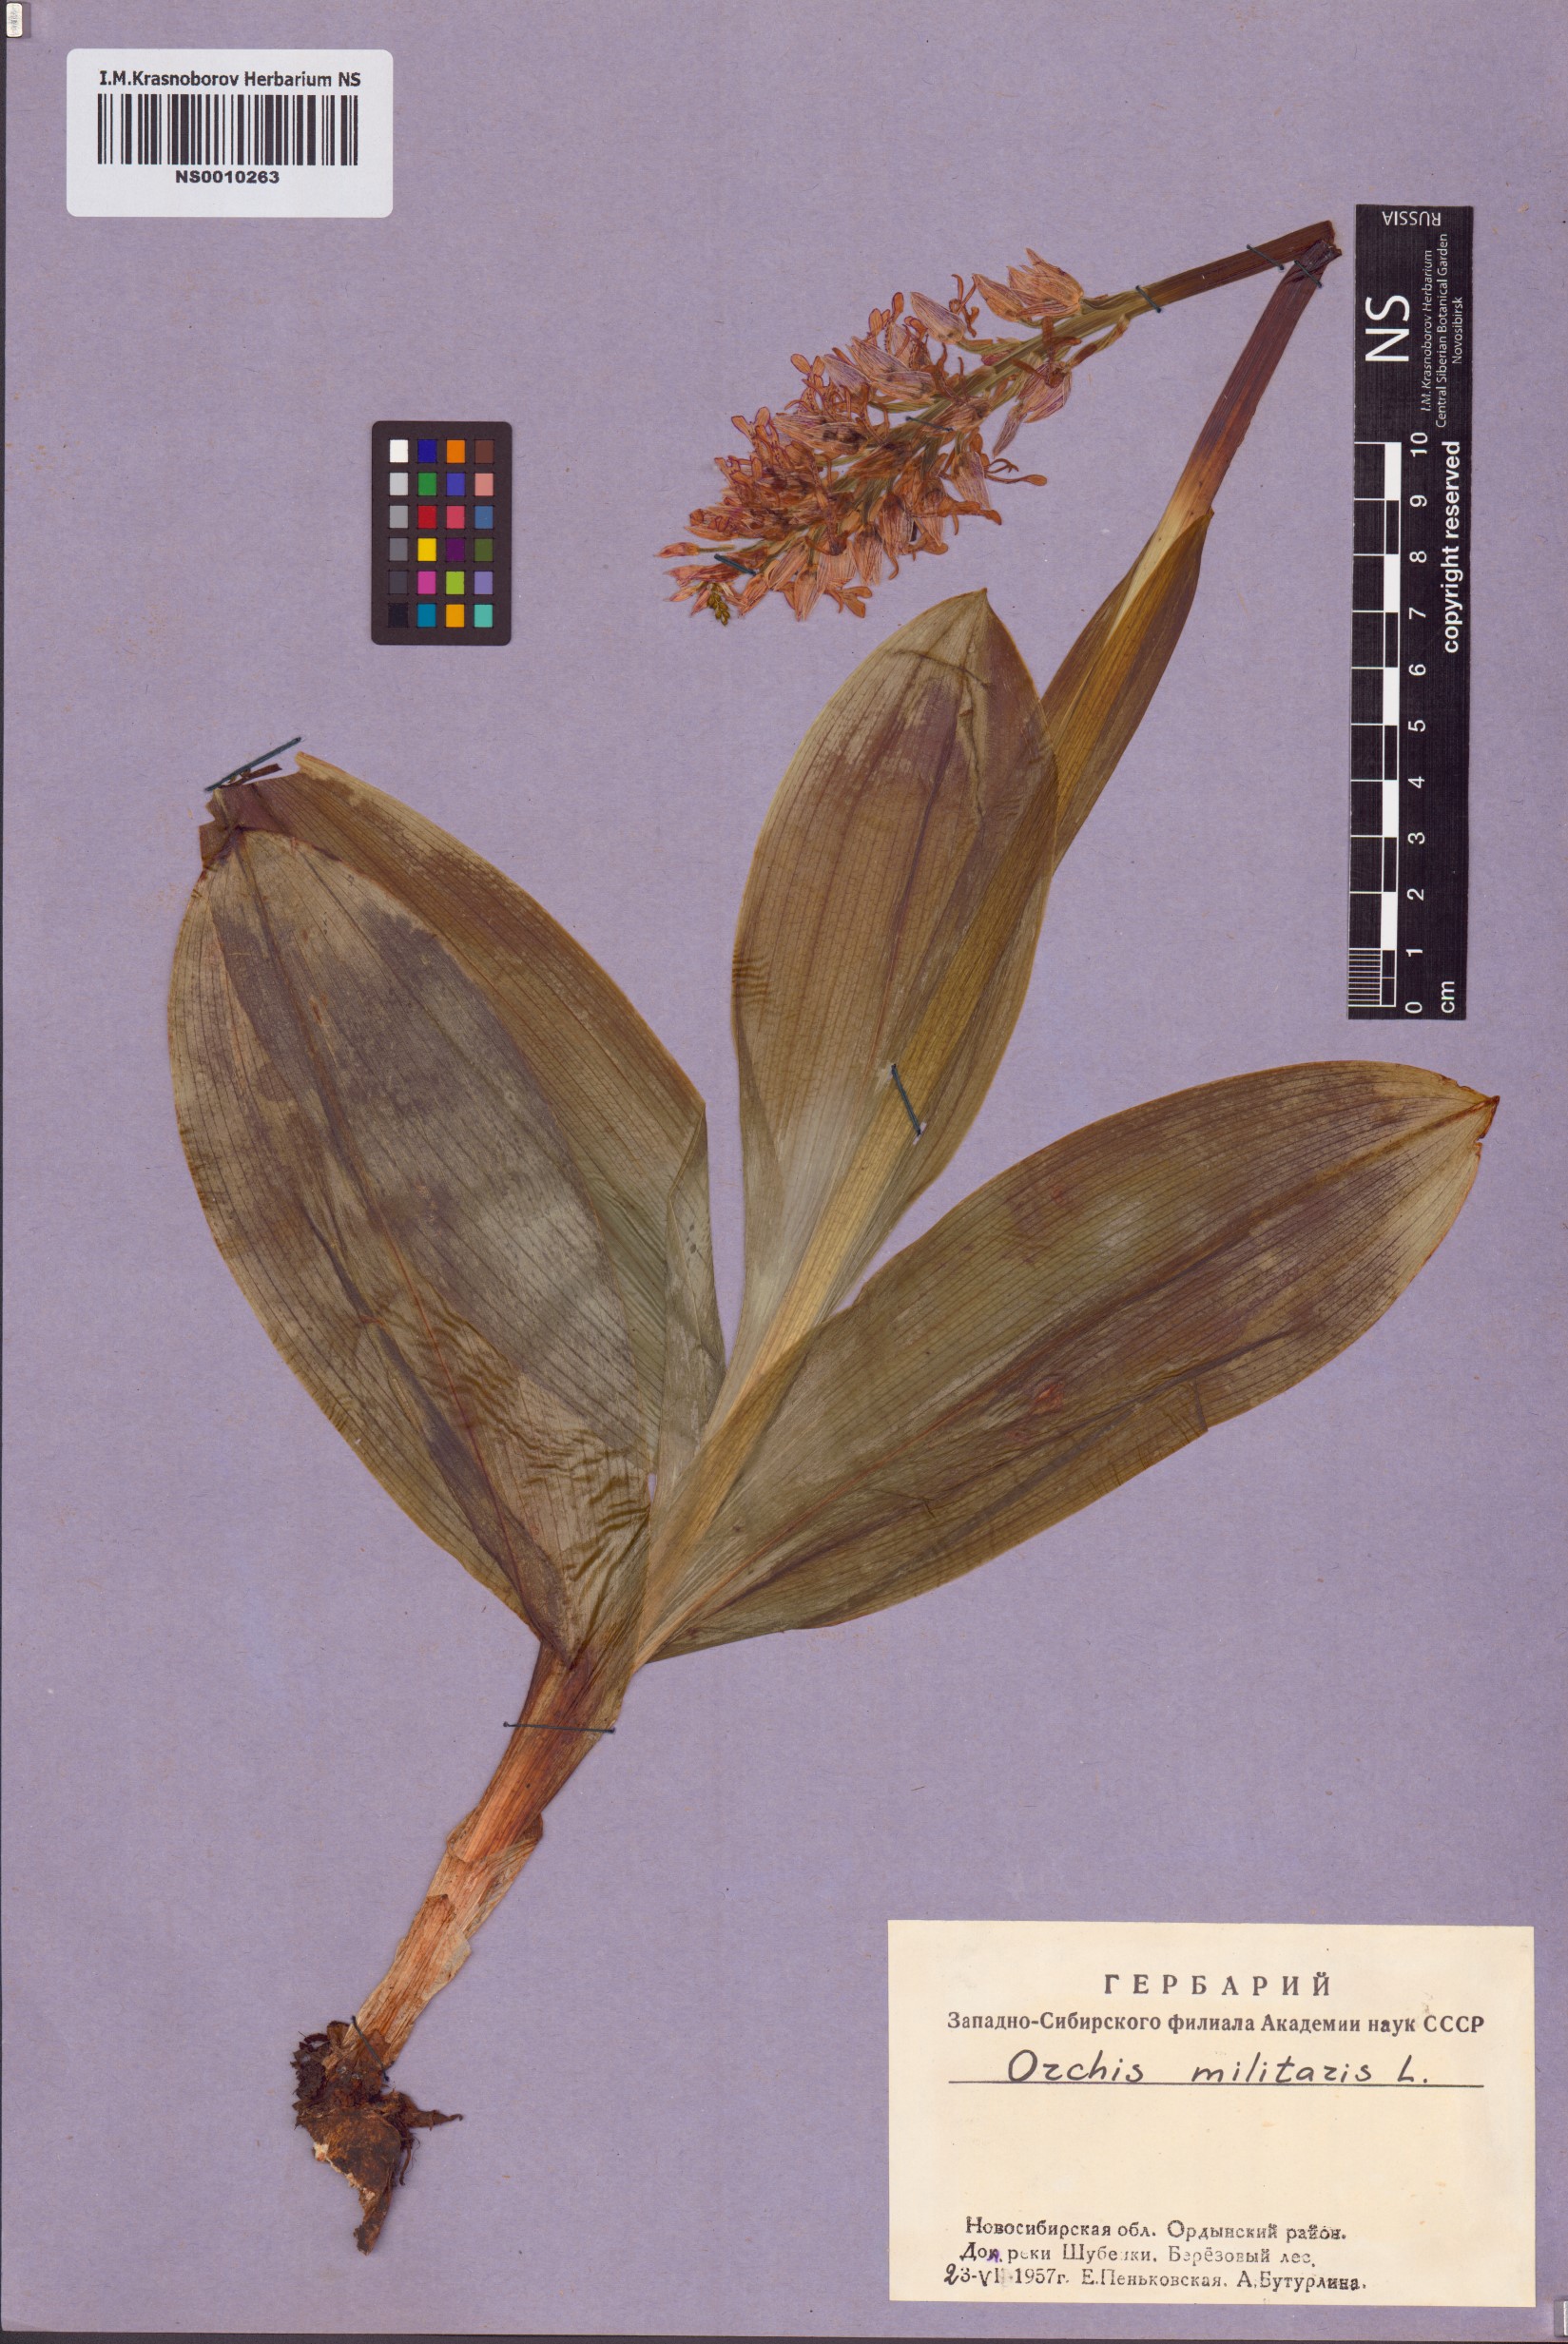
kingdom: Plantae
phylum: Tracheophyta
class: Liliopsida
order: Asparagales
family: Orchidaceae
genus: Orchis
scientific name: Orchis militaris
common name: Military orchid
